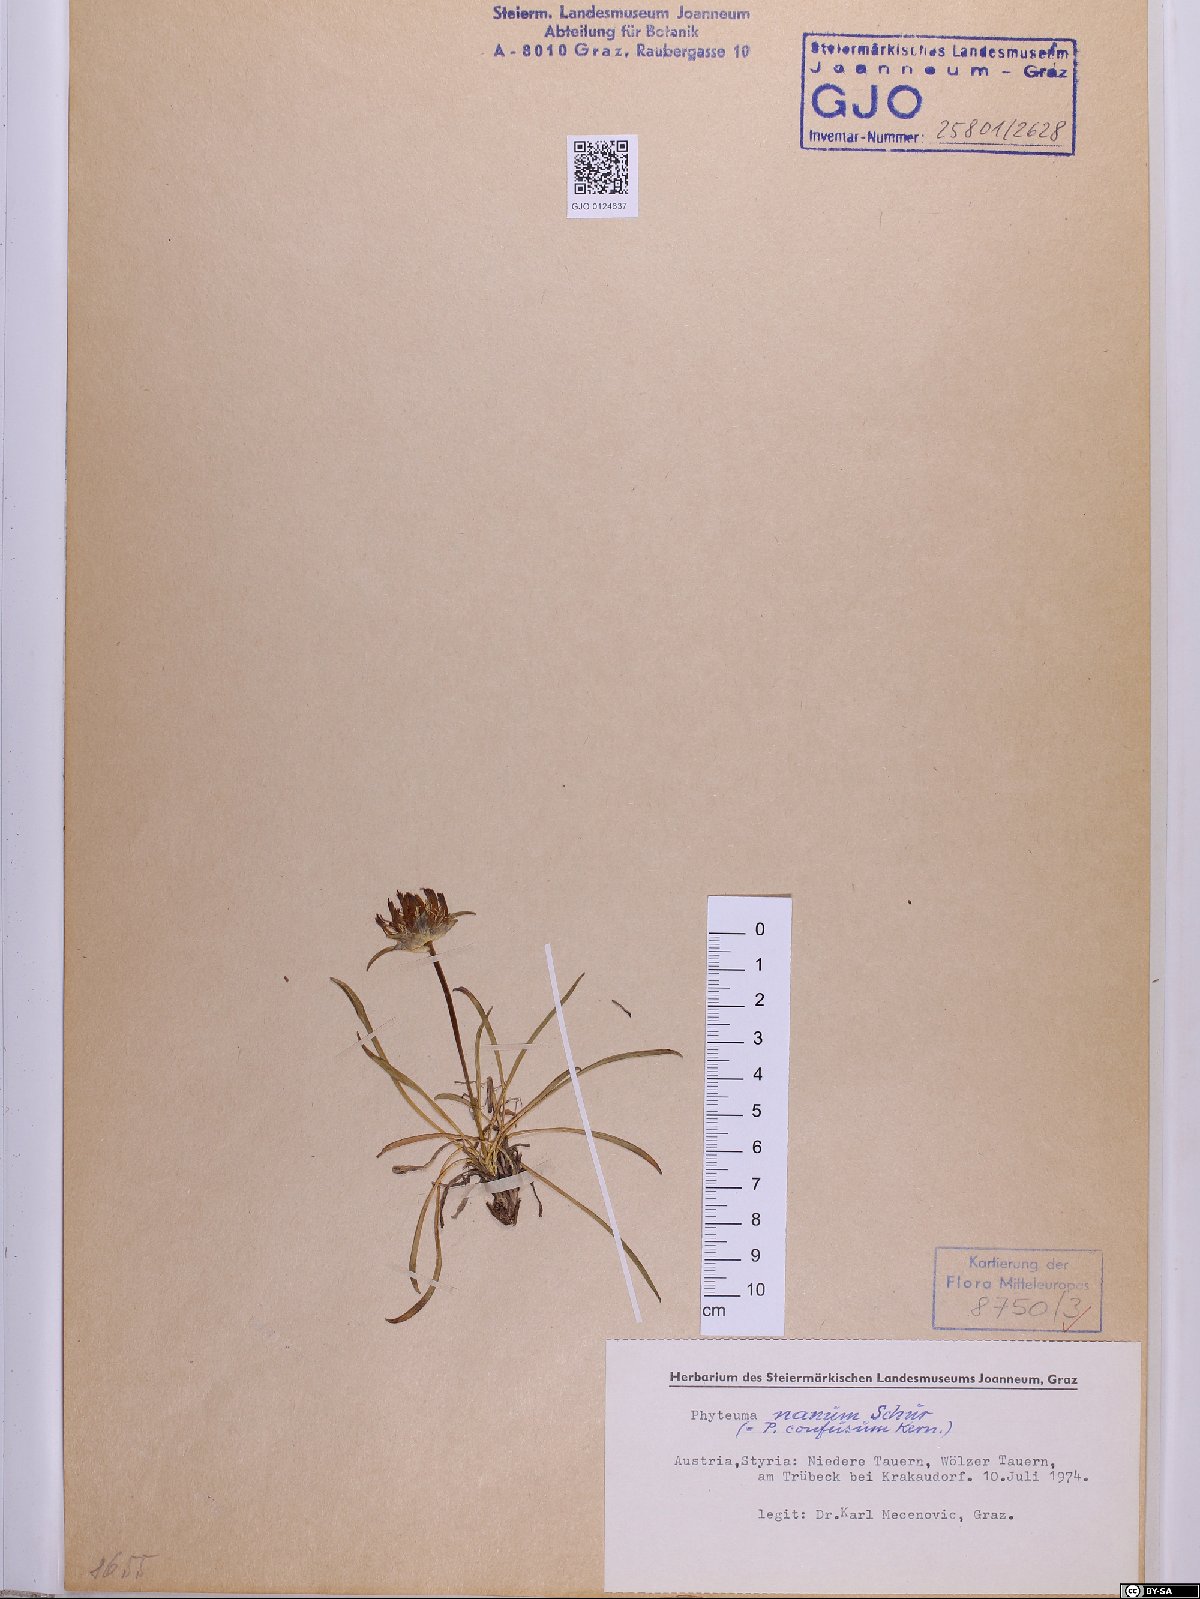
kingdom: Plantae
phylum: Tracheophyta
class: Magnoliopsida
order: Asterales
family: Campanulaceae
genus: Phyteuma
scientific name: Phyteuma globulariifolium
